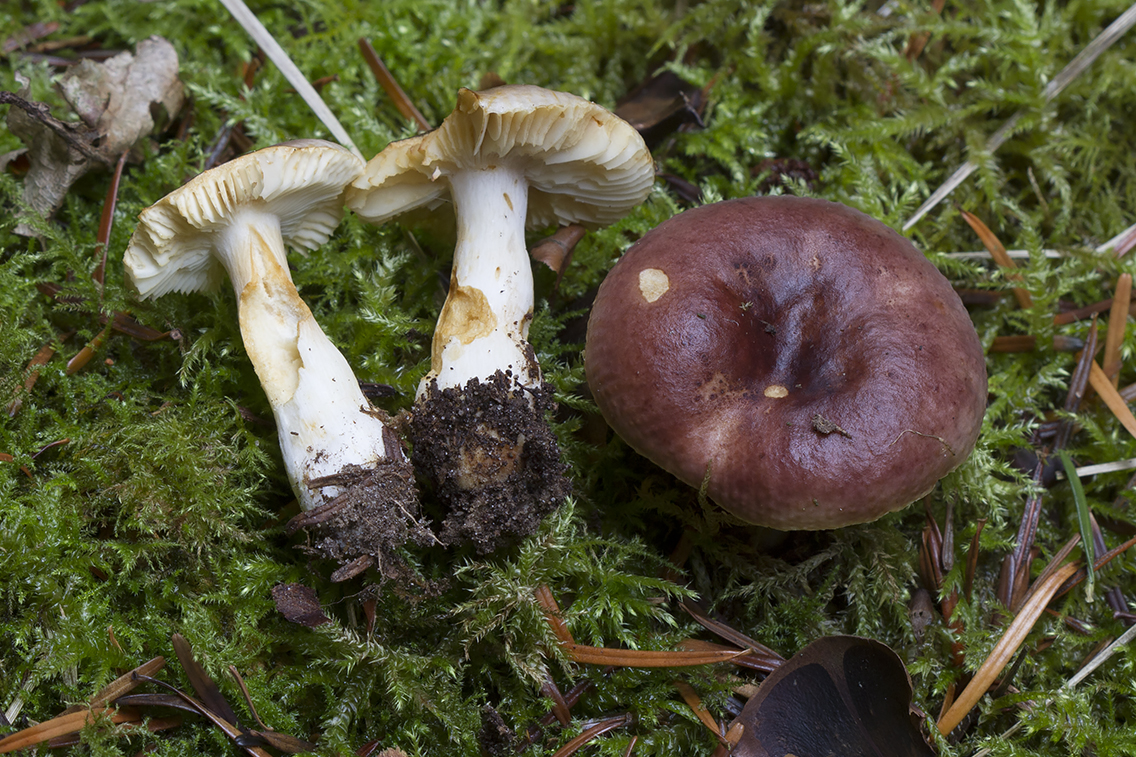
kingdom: Fungi
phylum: Basidiomycota
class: Agaricomycetes
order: Russulales
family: Russulaceae
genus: Russula
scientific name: Russula puellaris
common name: gulstokket skørhat
